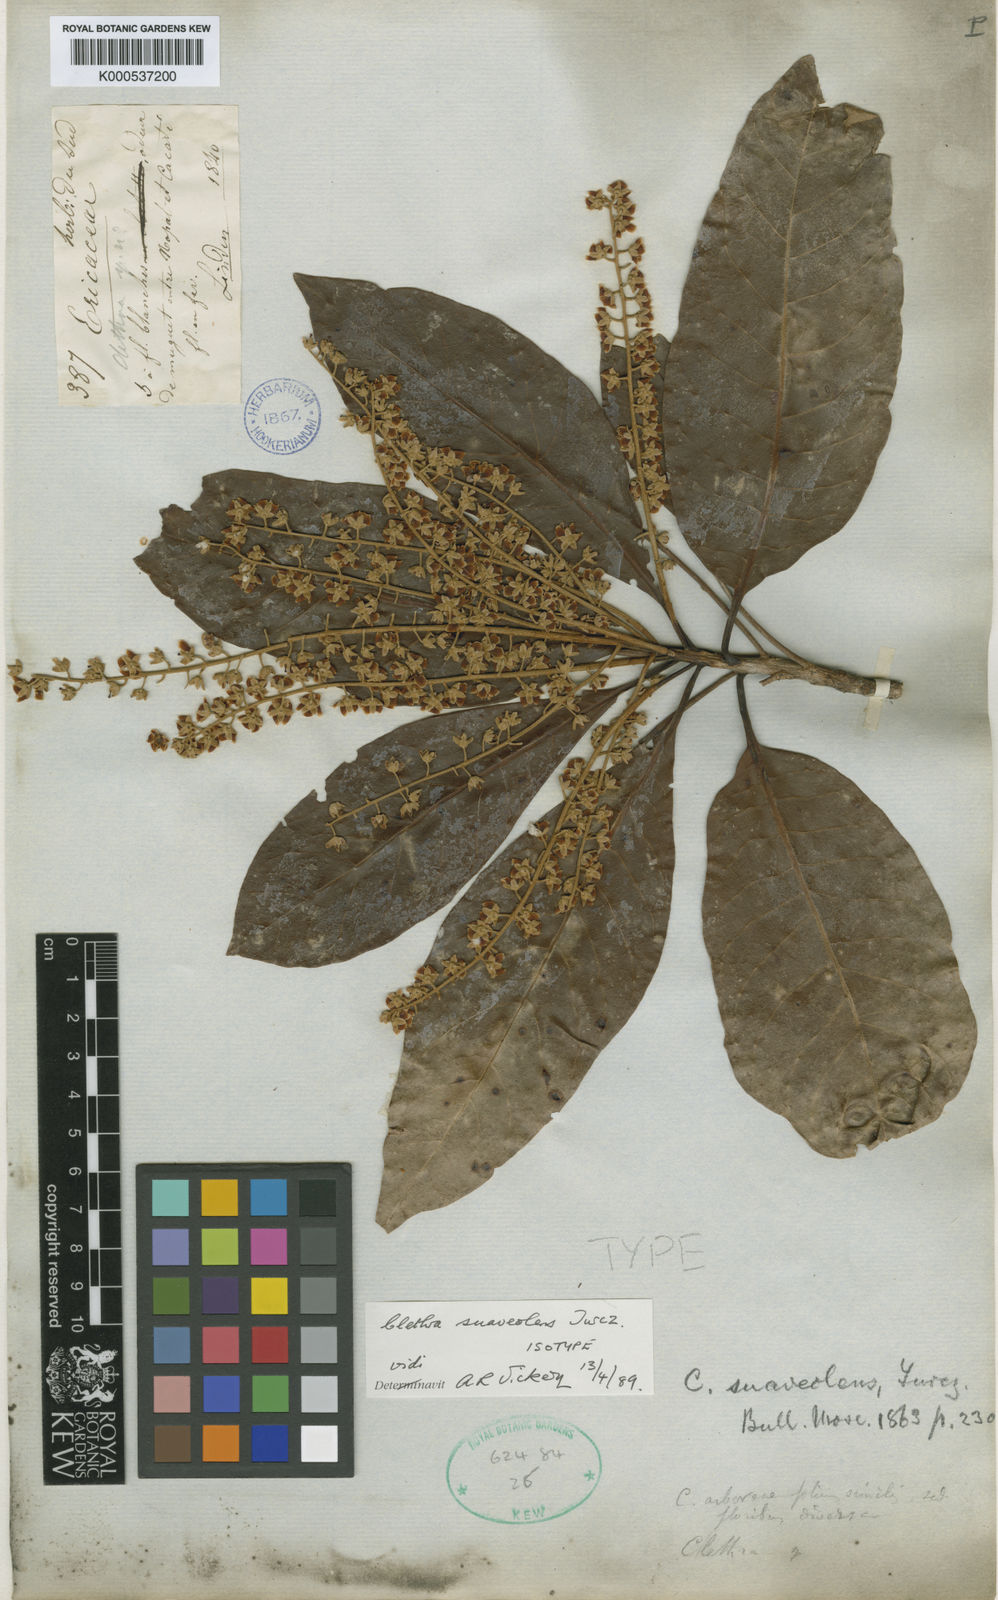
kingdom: Plantae
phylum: Tracheophyta
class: Magnoliopsida
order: Ericales
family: Clethraceae
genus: Clethra
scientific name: Clethra suaveolens
